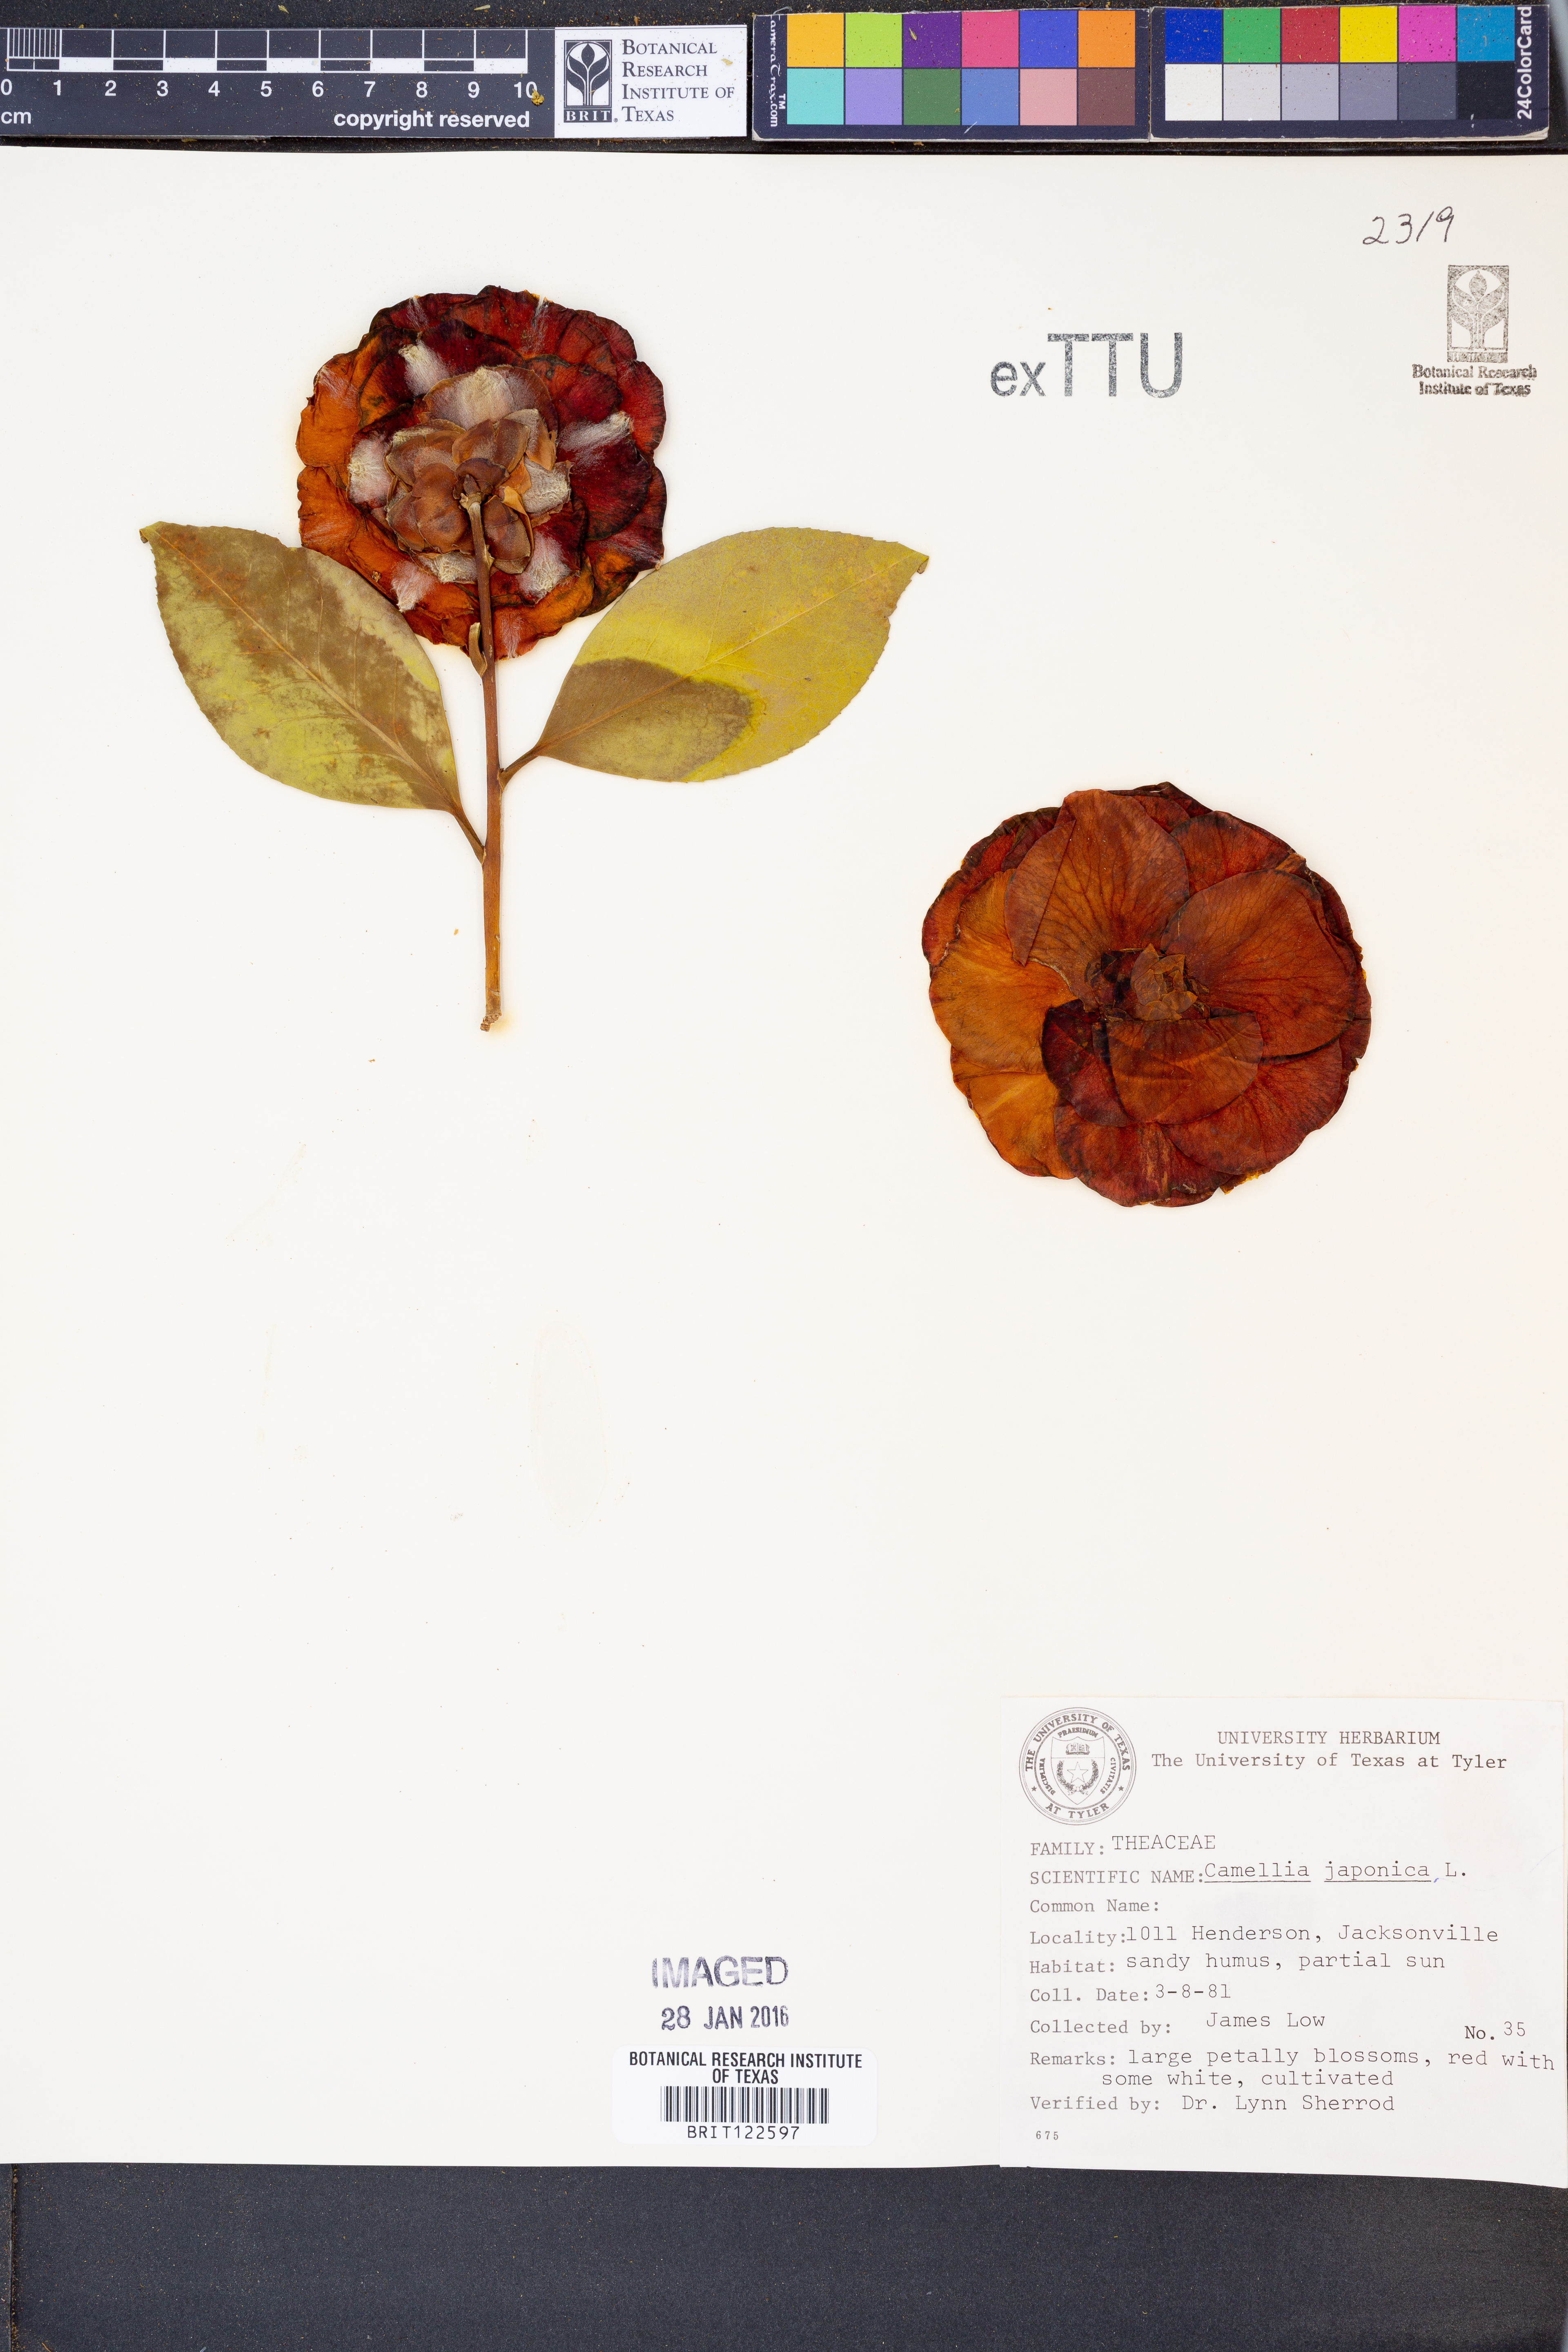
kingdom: Plantae
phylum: Tracheophyta
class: Magnoliopsida
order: Ericales
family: Theaceae
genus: Camellia
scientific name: Camellia japonica
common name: Camellia
